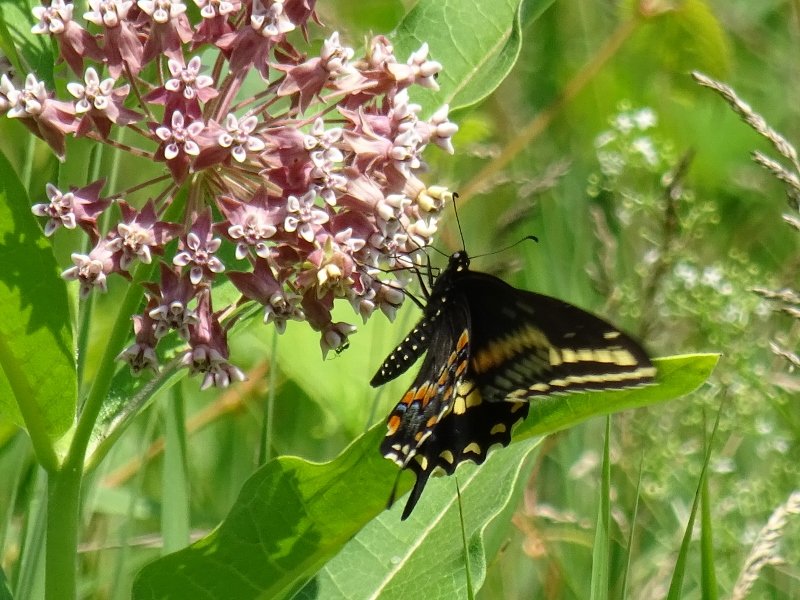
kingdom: Animalia
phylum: Arthropoda
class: Insecta
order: Lepidoptera
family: Papilionidae
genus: Papilio
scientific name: Papilio polyxenes
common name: Black Swallowtail
